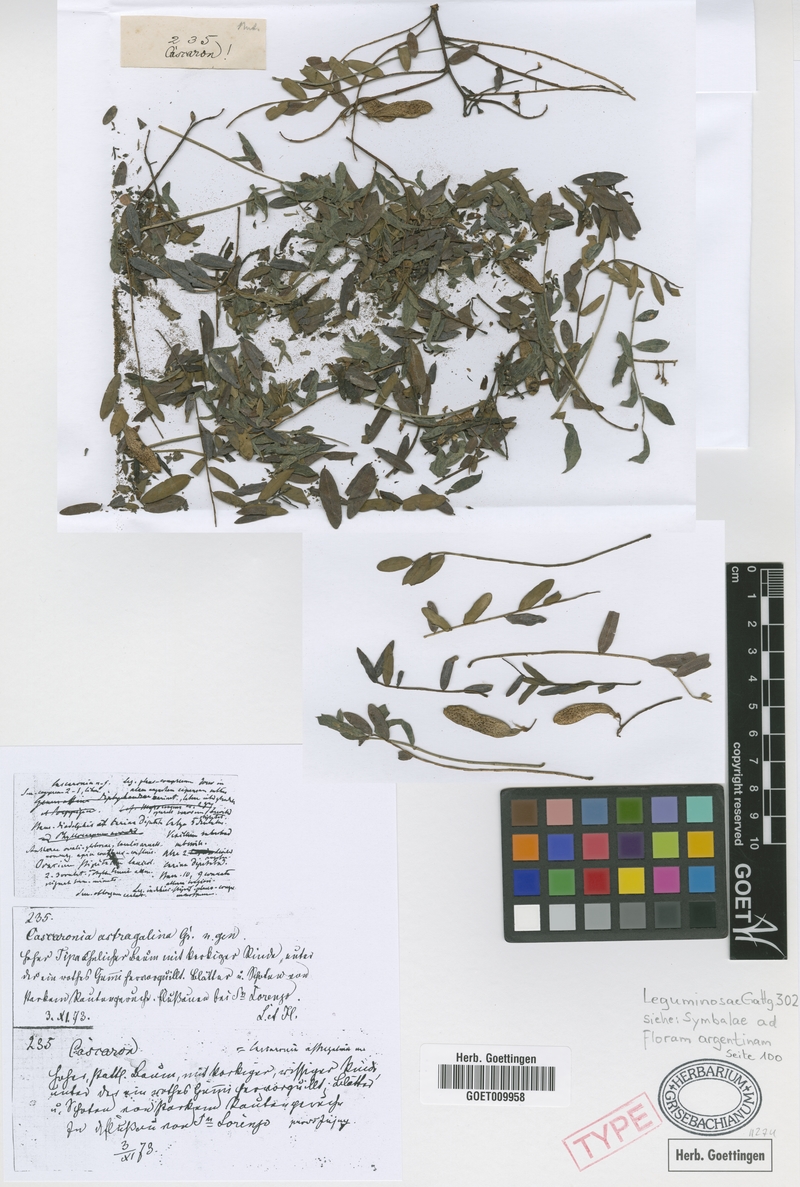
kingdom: Plantae
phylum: Tracheophyta
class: Magnoliopsida
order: Fabales
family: Fabaceae
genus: Cascaronia
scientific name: Cascaronia astragalina
